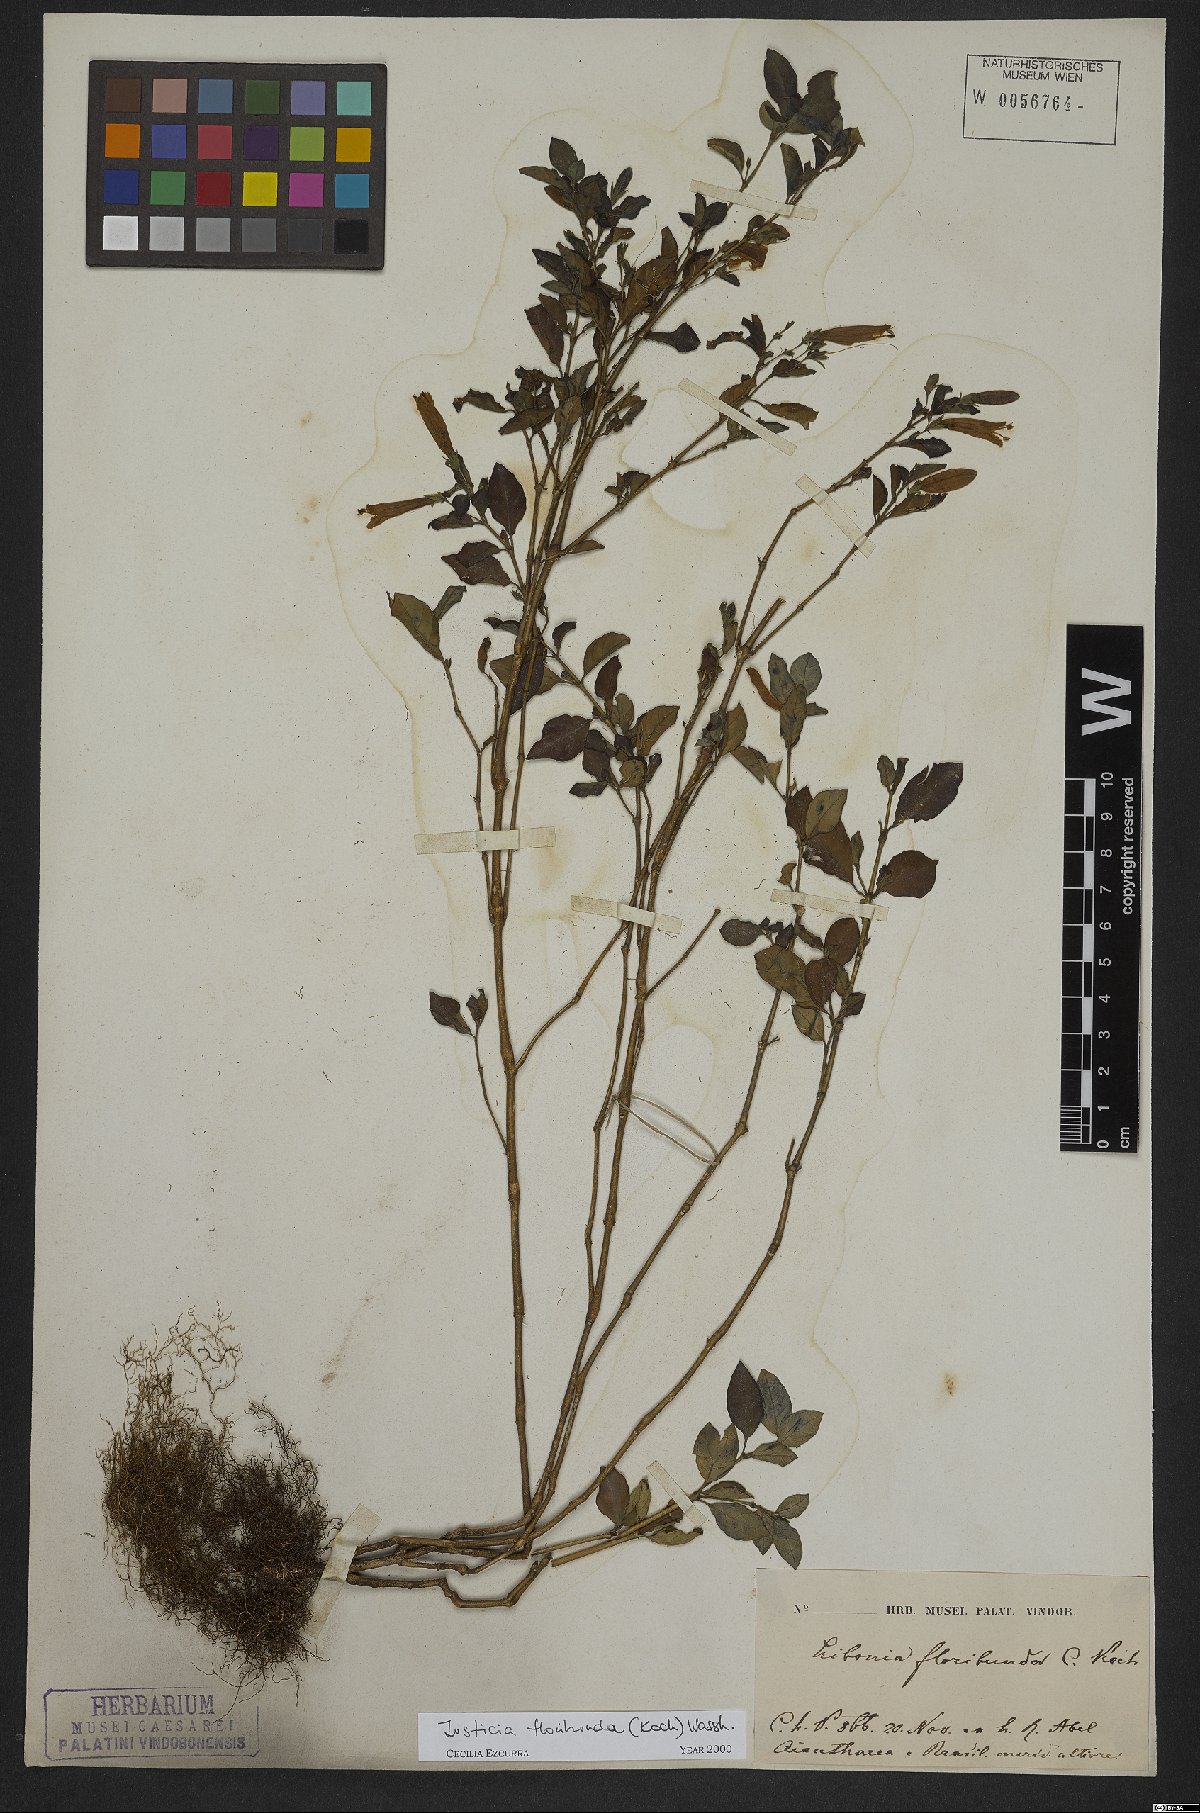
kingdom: Plantae
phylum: Tracheophyta
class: Magnoliopsida
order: Lamiales
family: Acanthaceae
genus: Justicia
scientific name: Justicia floribunda
